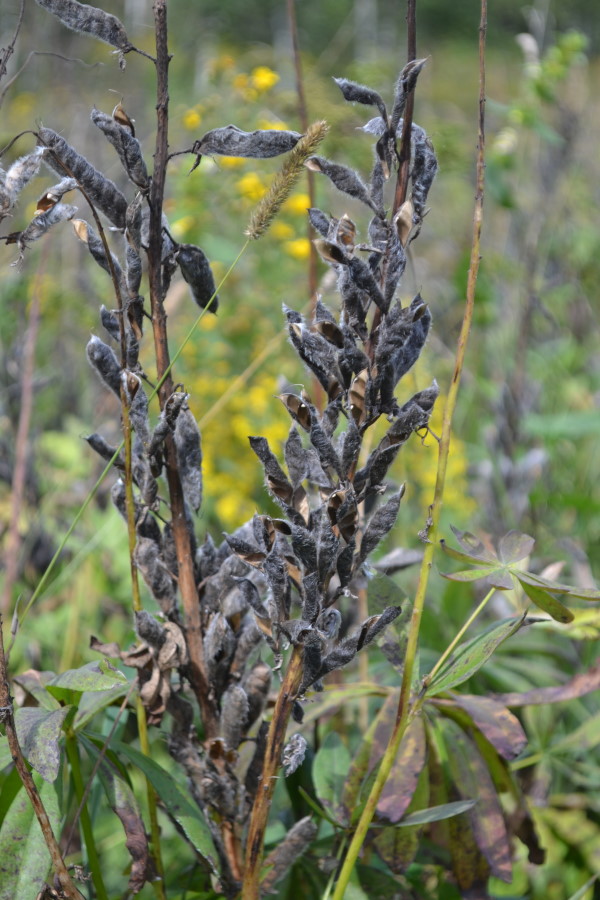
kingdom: Plantae
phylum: Tracheophyta
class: Magnoliopsida
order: Fabales
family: Fabaceae
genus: Lupinus
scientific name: Lupinus polyphyllus
